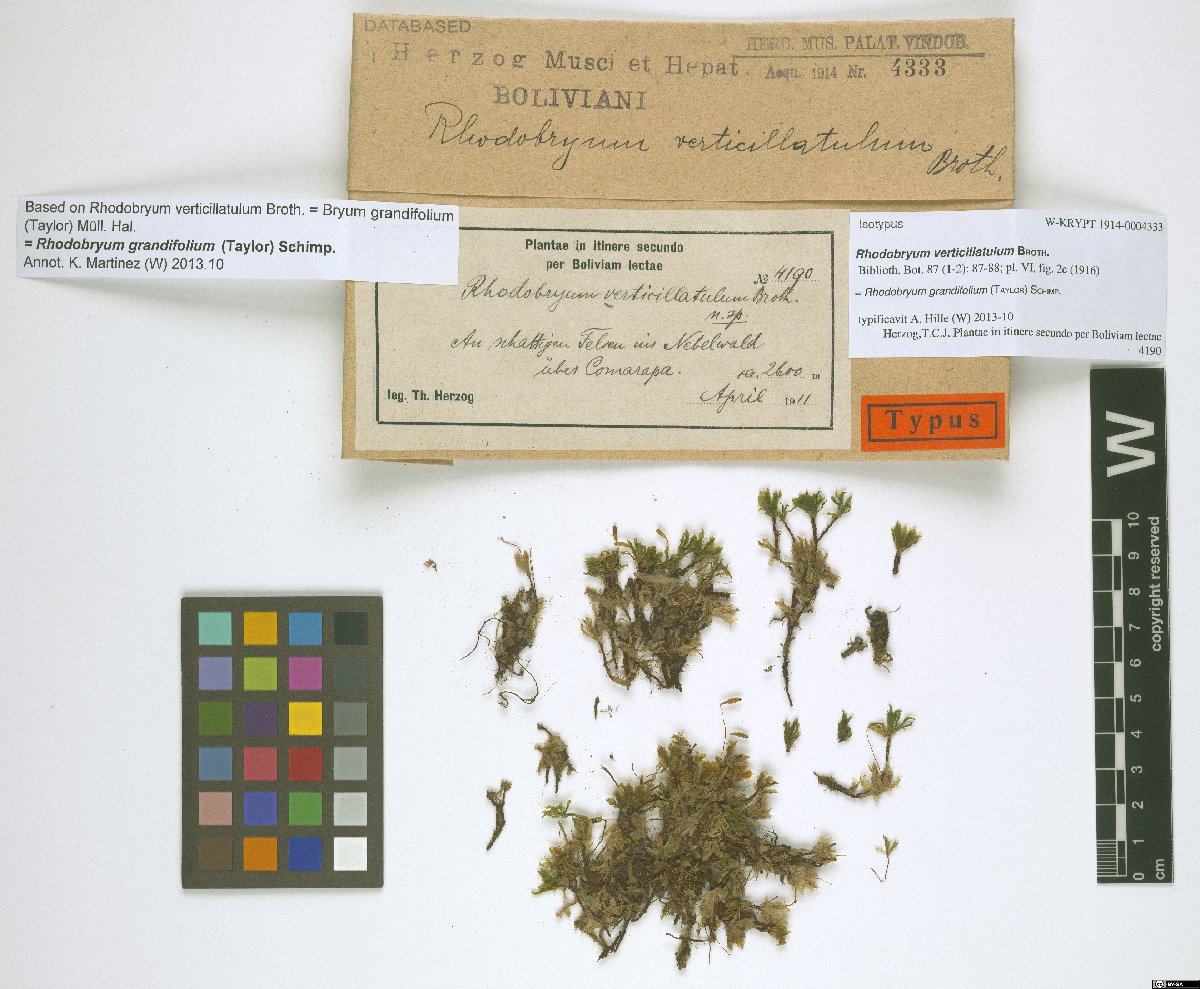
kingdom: Plantae
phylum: Bryophyta
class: Bryopsida
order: Bryales
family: Bryaceae
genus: Rhodobryum
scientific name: Rhodobryum grandifolium
